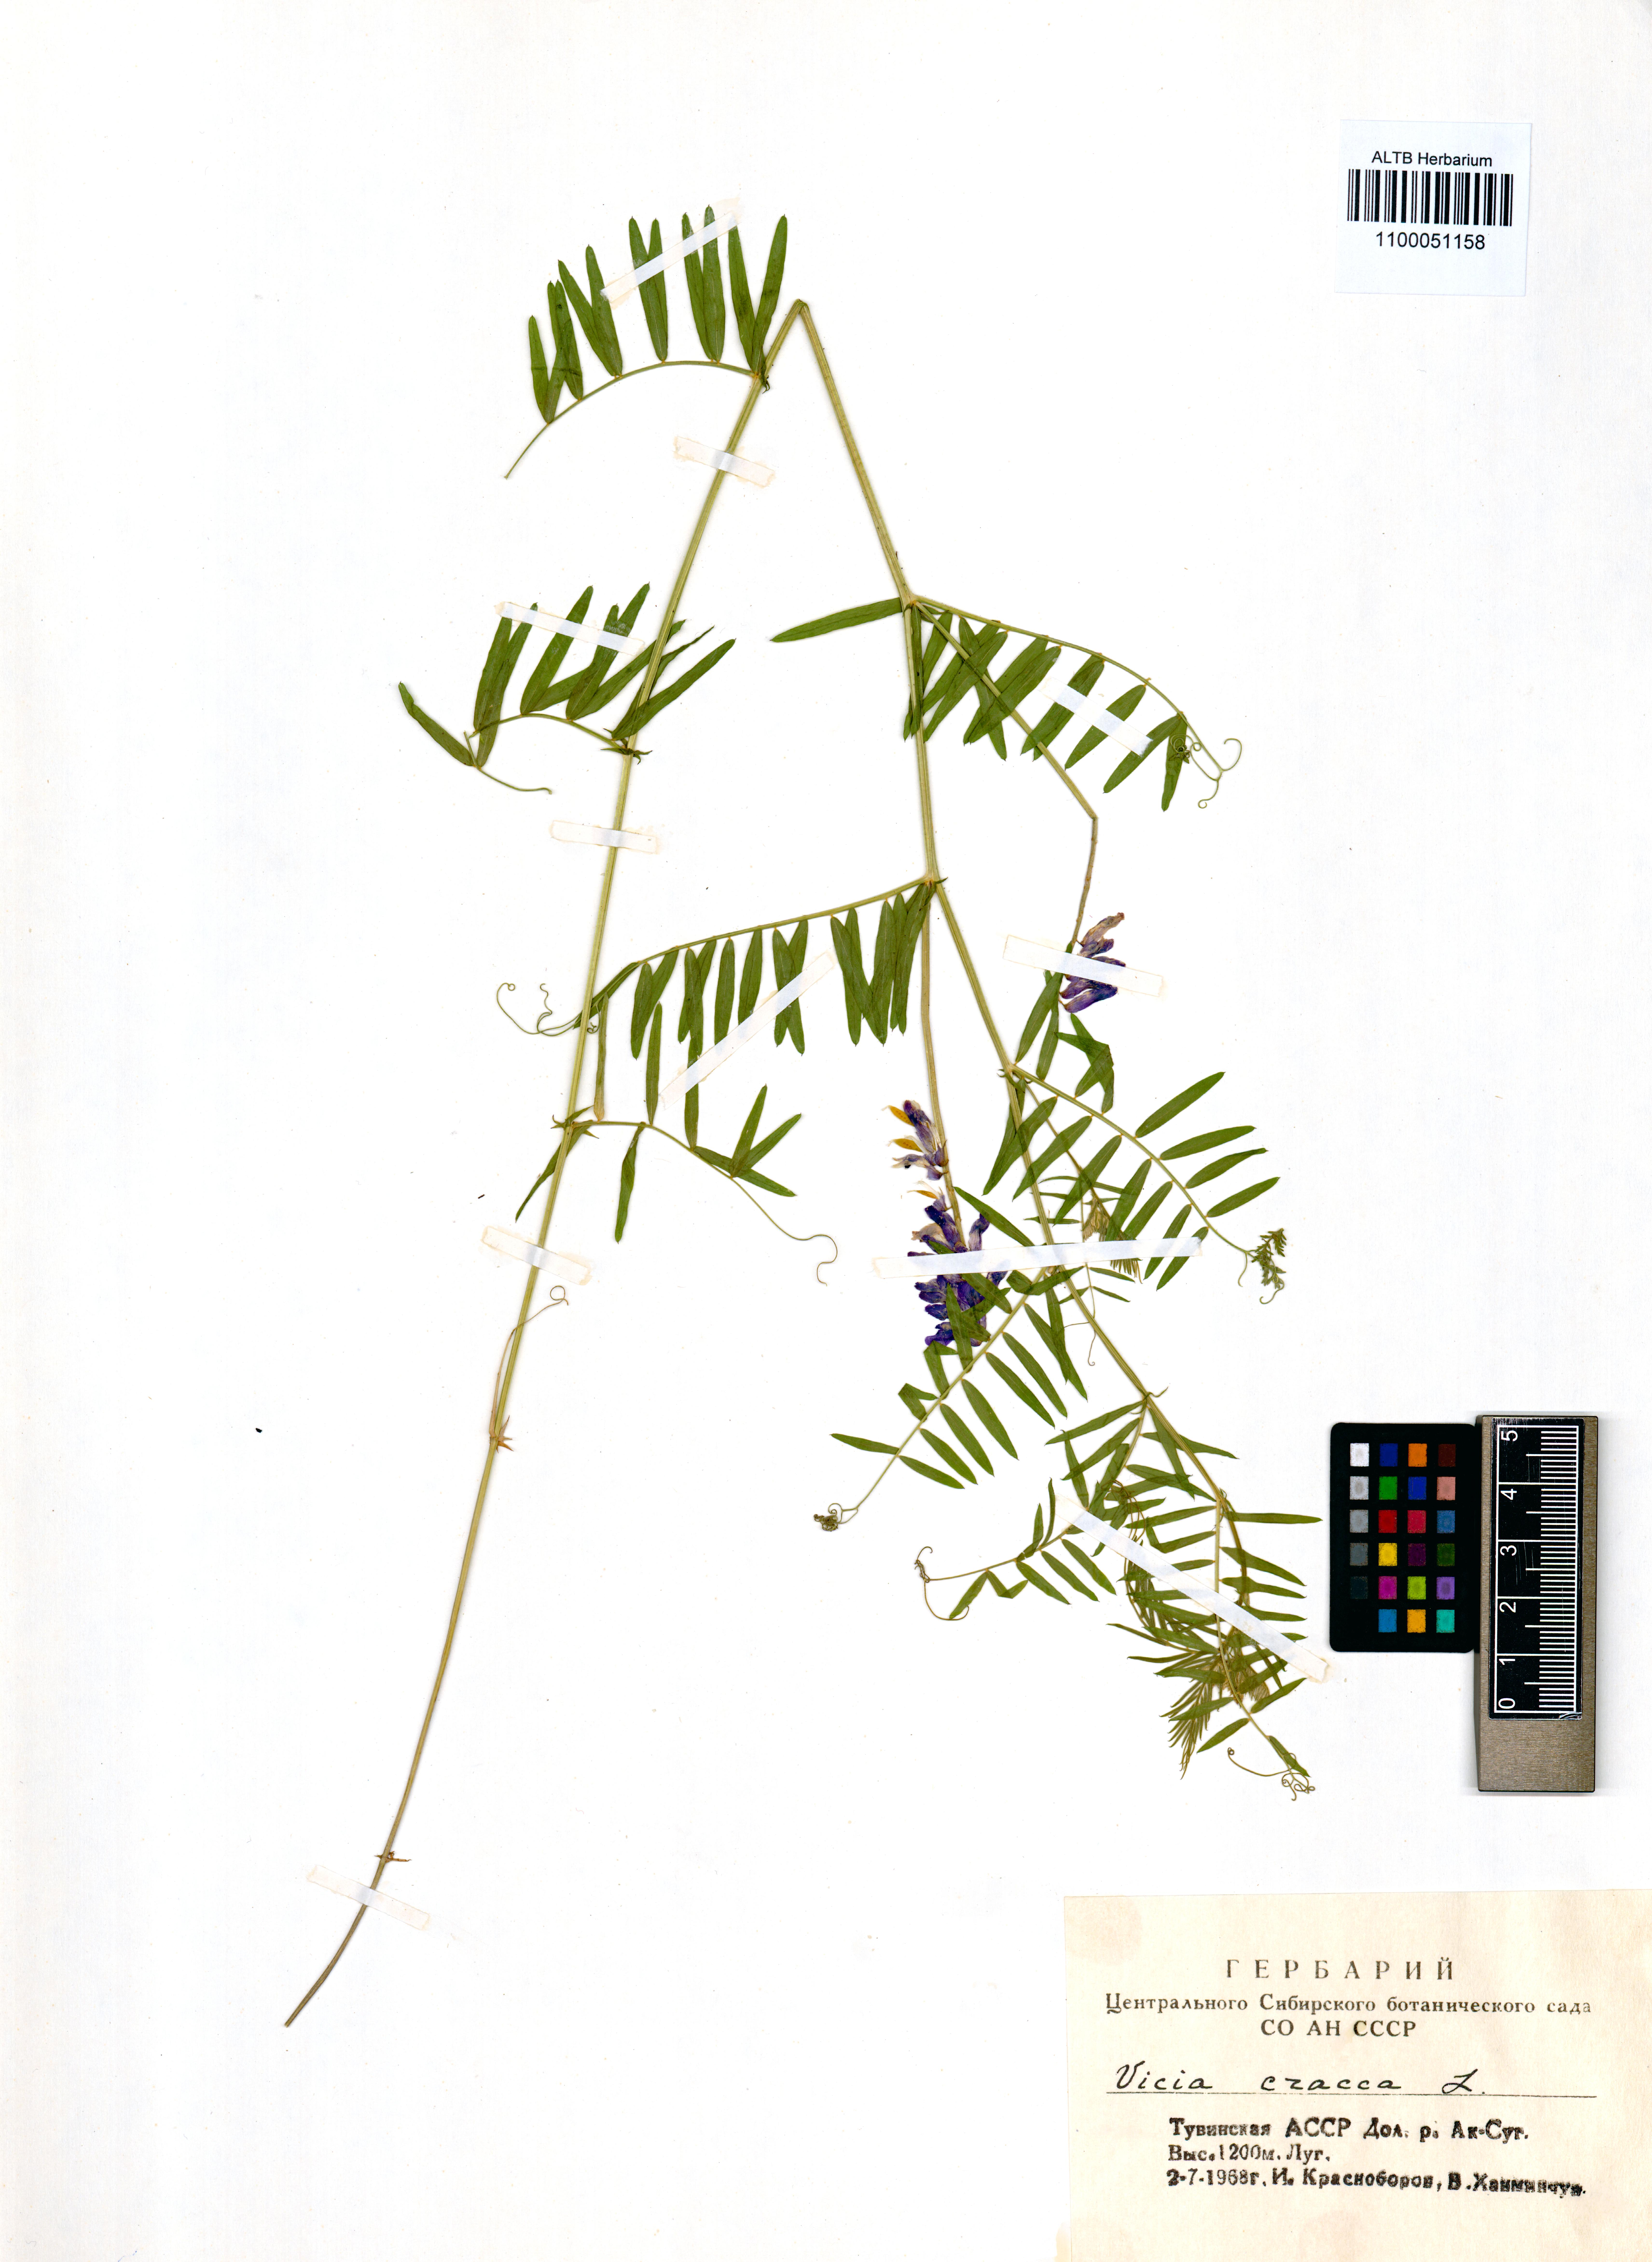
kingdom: Plantae
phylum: Tracheophyta
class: Magnoliopsida
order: Fabales
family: Fabaceae
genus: Vicia
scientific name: Vicia cracca
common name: Bird vetch
